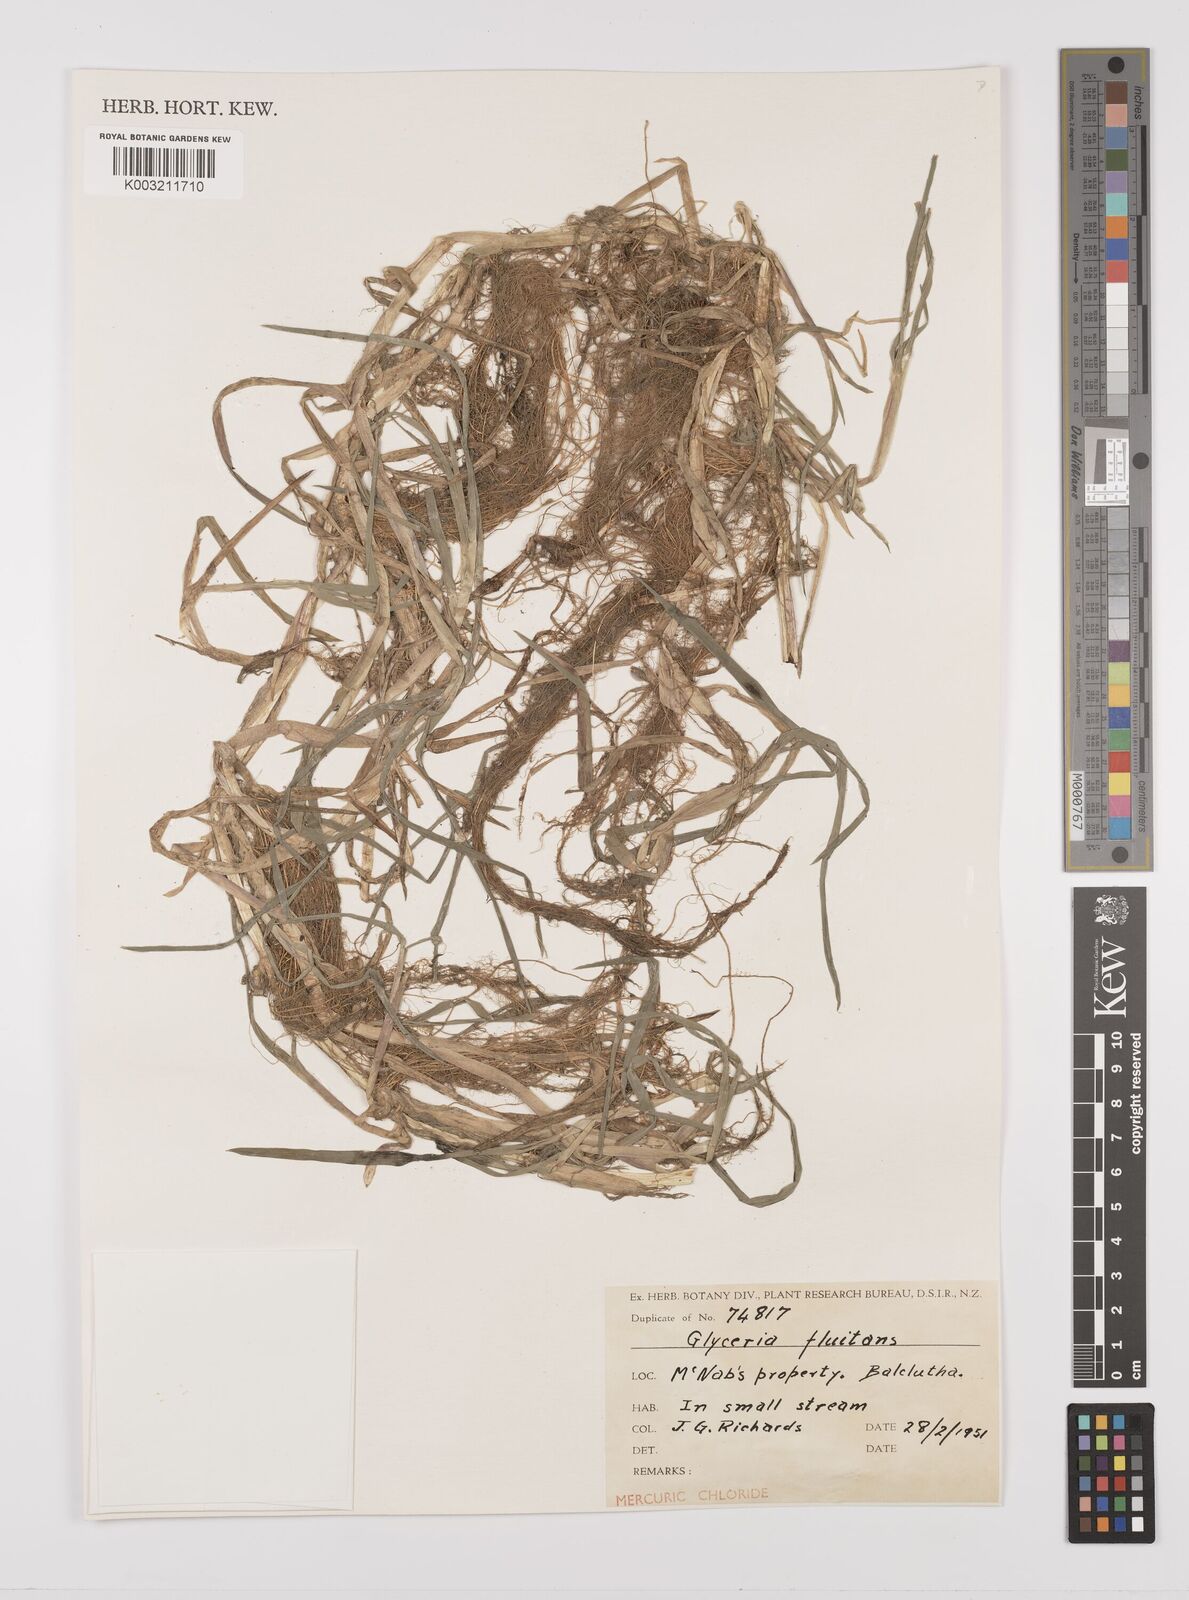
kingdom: Plantae
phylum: Tracheophyta
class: Liliopsida
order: Poales
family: Poaceae
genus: Glyceria
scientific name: Glyceria fluitans
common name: Floating sweet-grass
